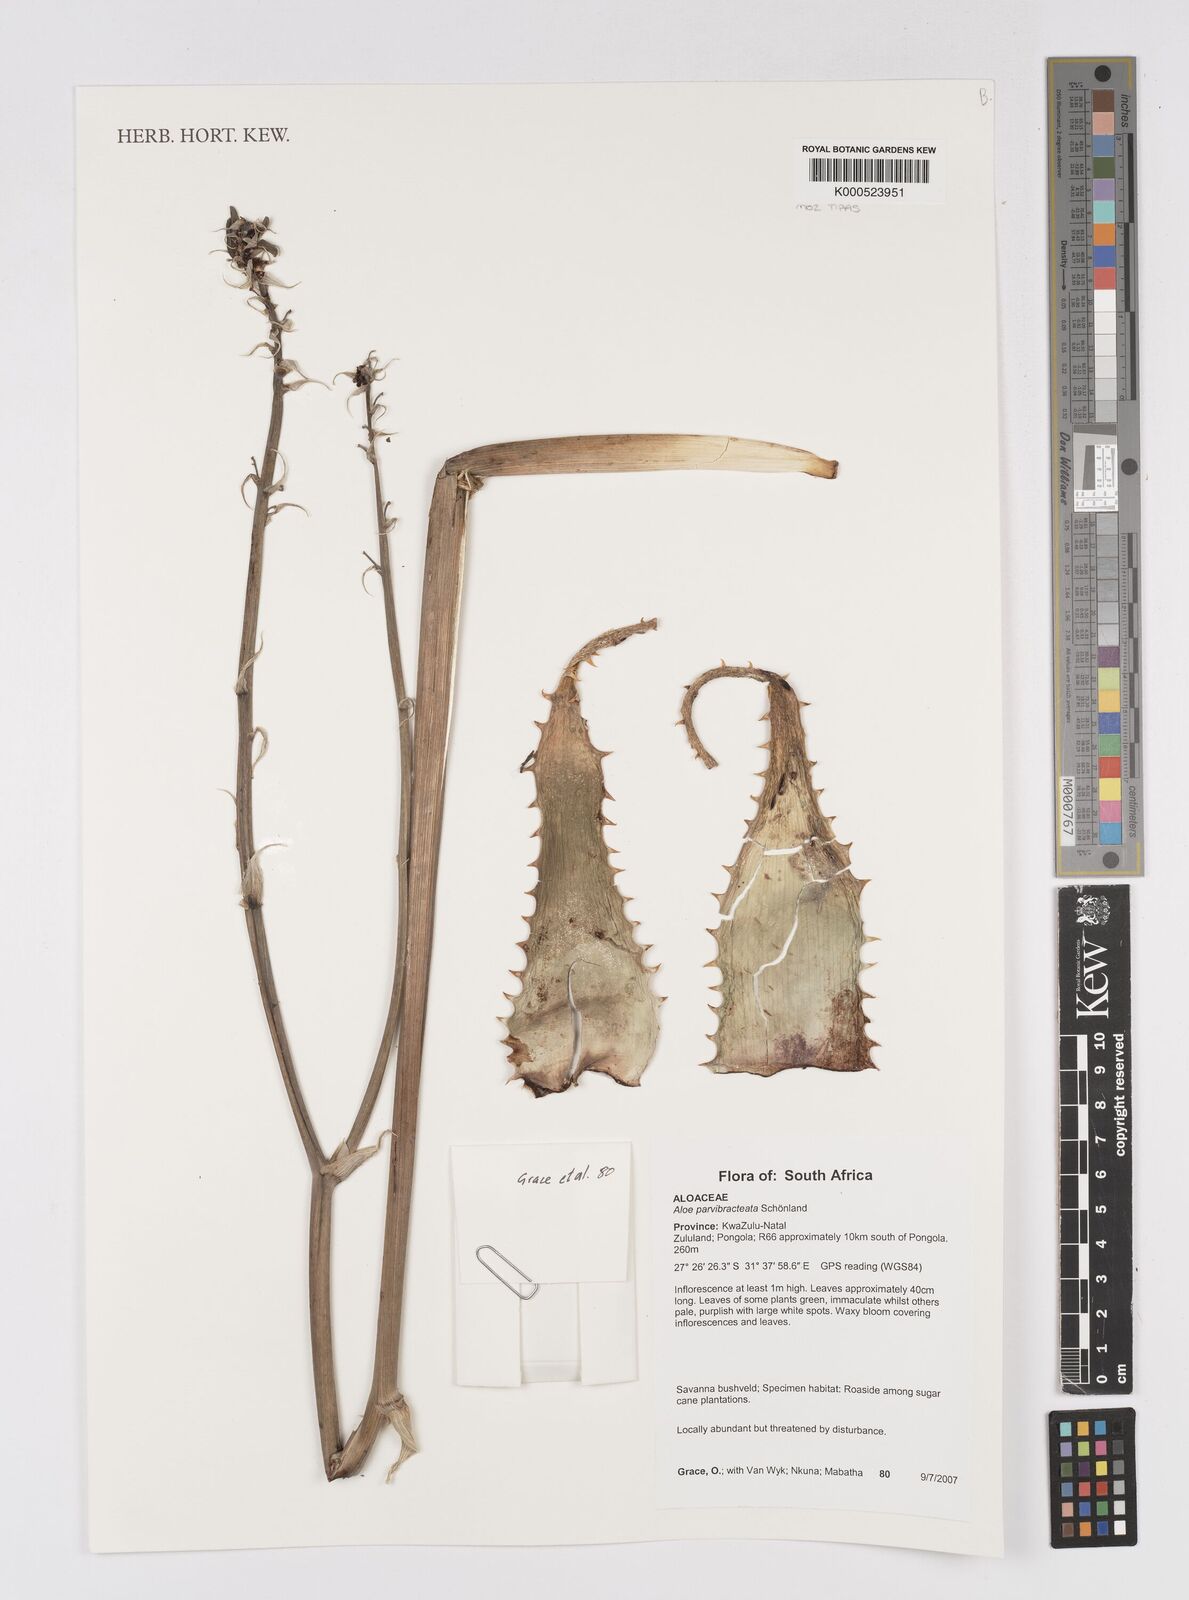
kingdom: Plantae
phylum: Tracheophyta
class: Liliopsida
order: Asparagales
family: Asphodelaceae
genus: Aloe
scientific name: Aloe
